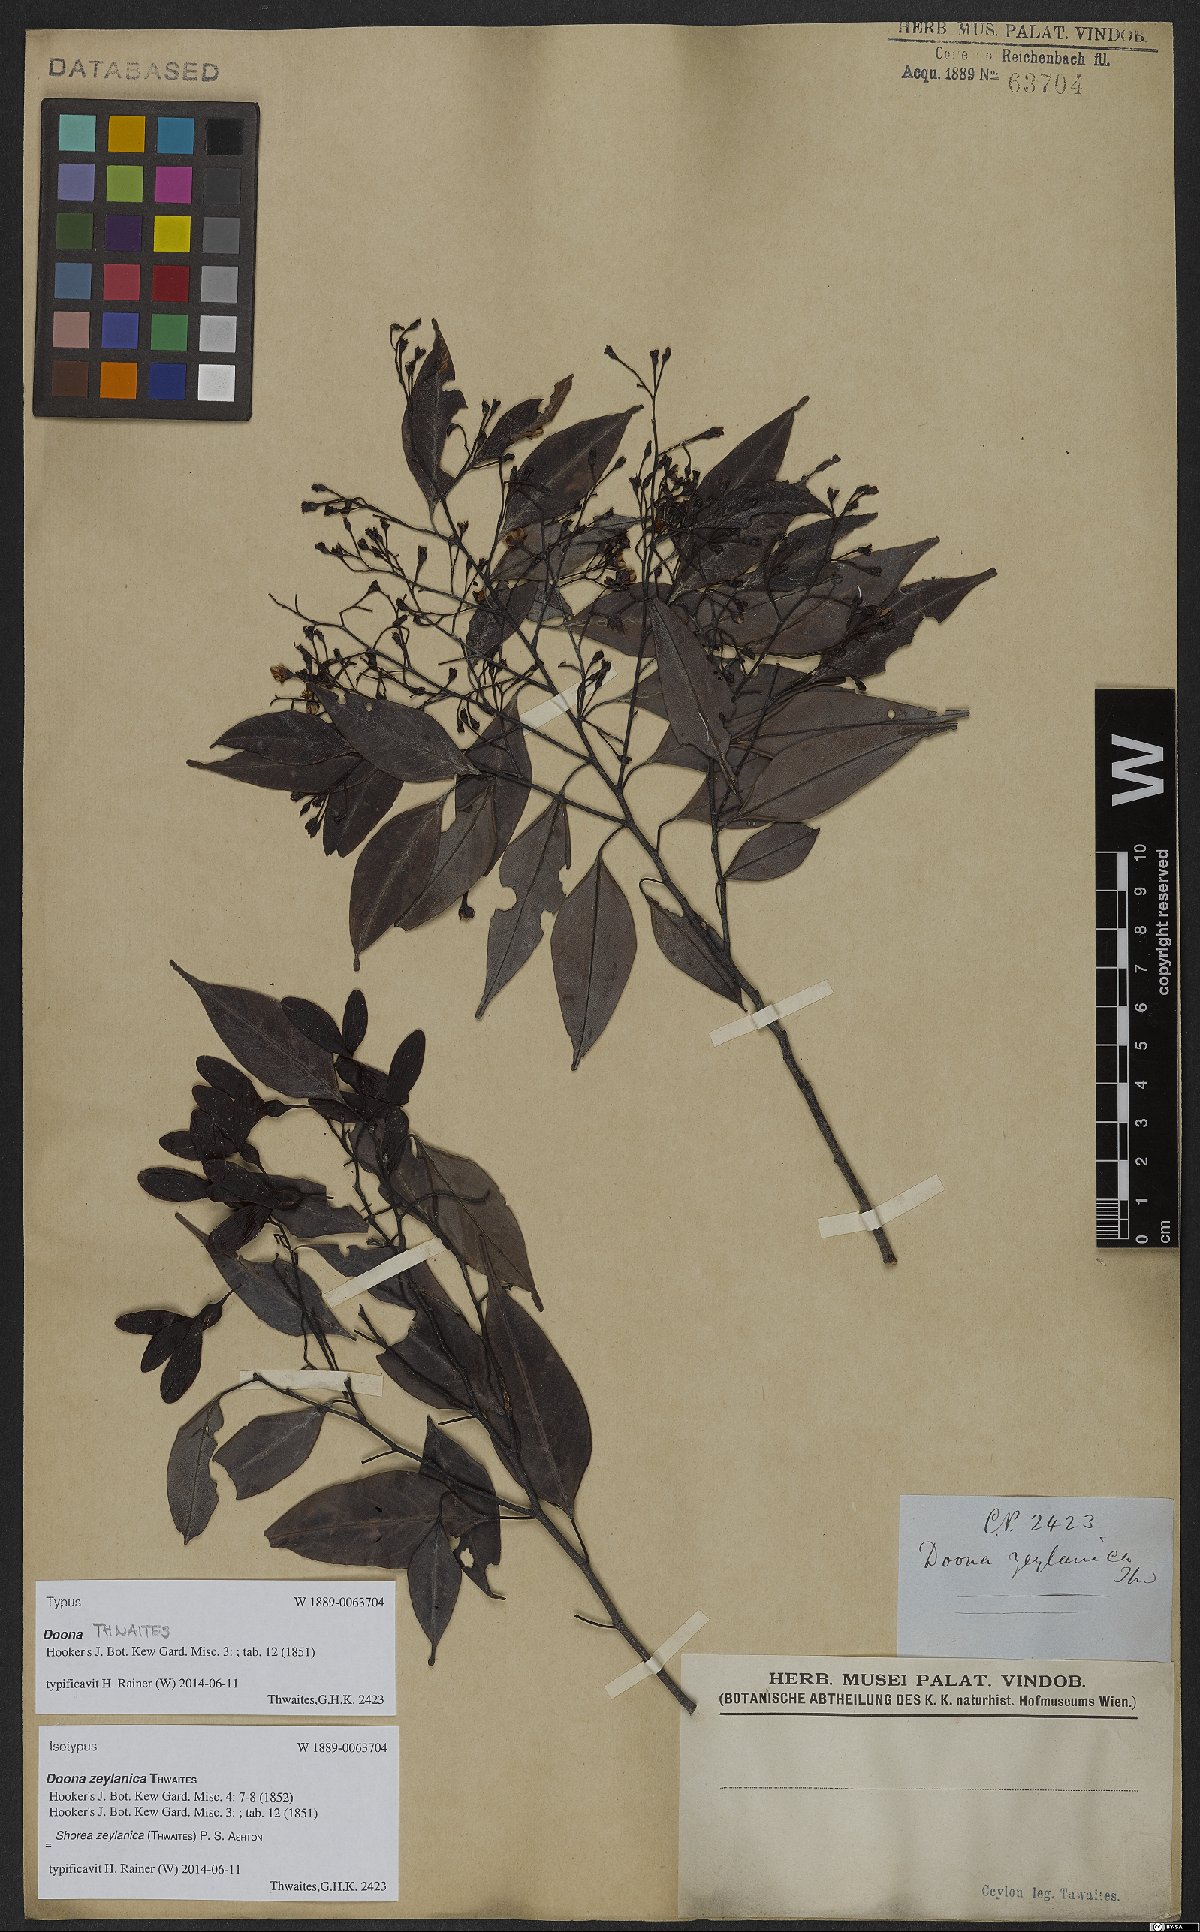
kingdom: Plantae
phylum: Tracheophyta
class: Magnoliopsida
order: Malvales
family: Dipterocarpaceae
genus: Doona
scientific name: Doona zeylanica
